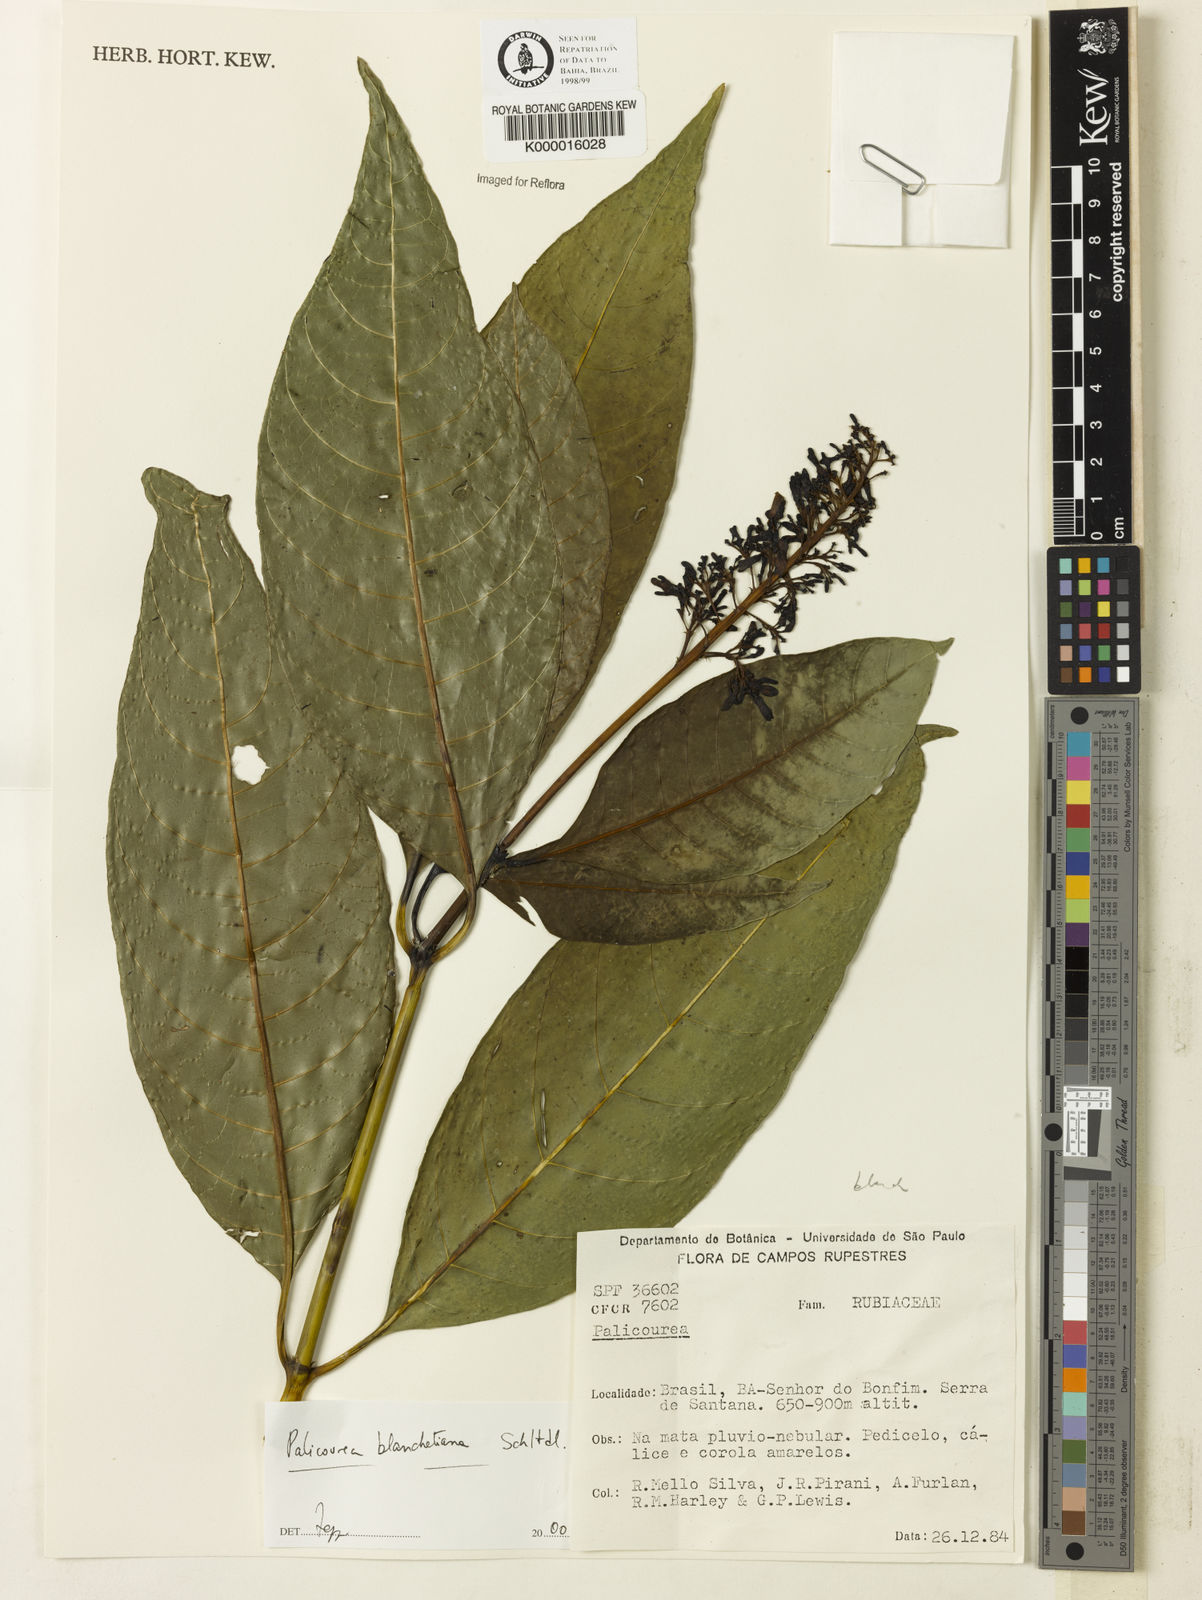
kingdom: Plantae
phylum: Tracheophyta
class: Magnoliopsida
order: Gentianales
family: Rubiaceae
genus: Palicourea
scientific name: Palicourea blanchetiana
